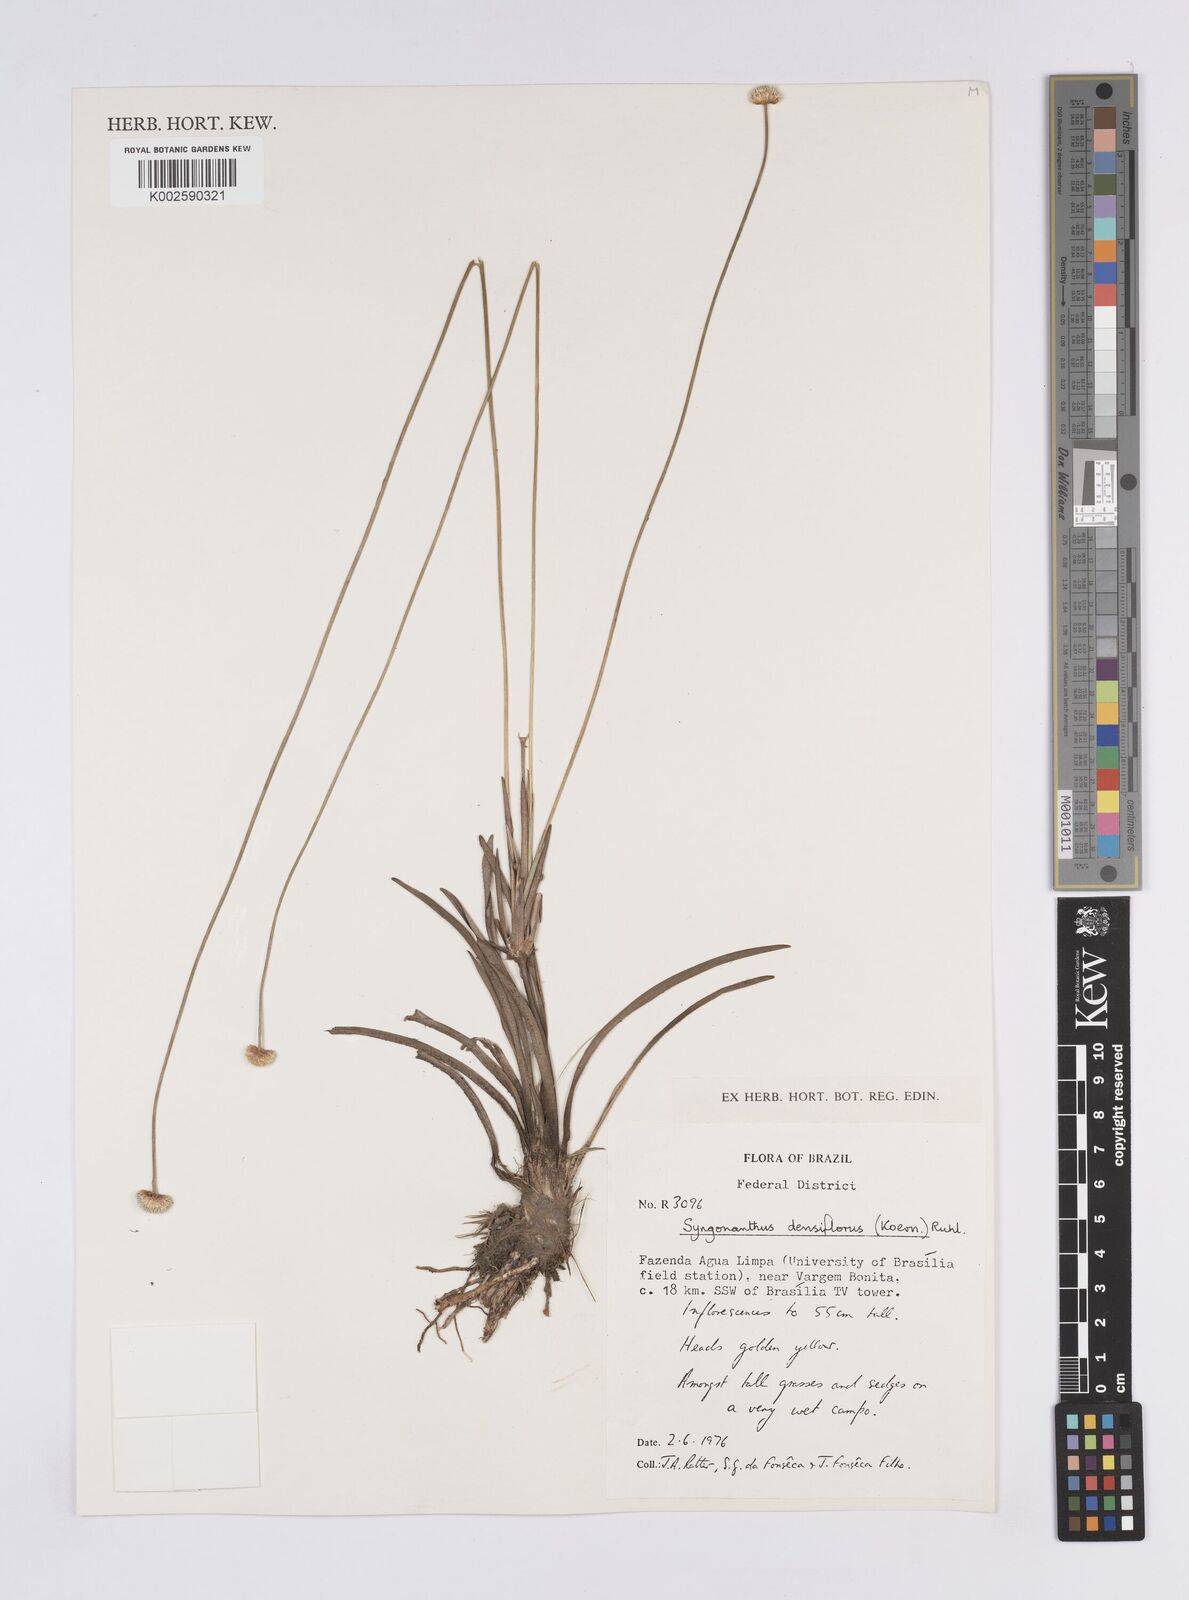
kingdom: Plantae
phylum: Tracheophyta
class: Liliopsida
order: Poales
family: Eriocaulaceae
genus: Syngonanthus
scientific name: Syngonanthus densiflorus
